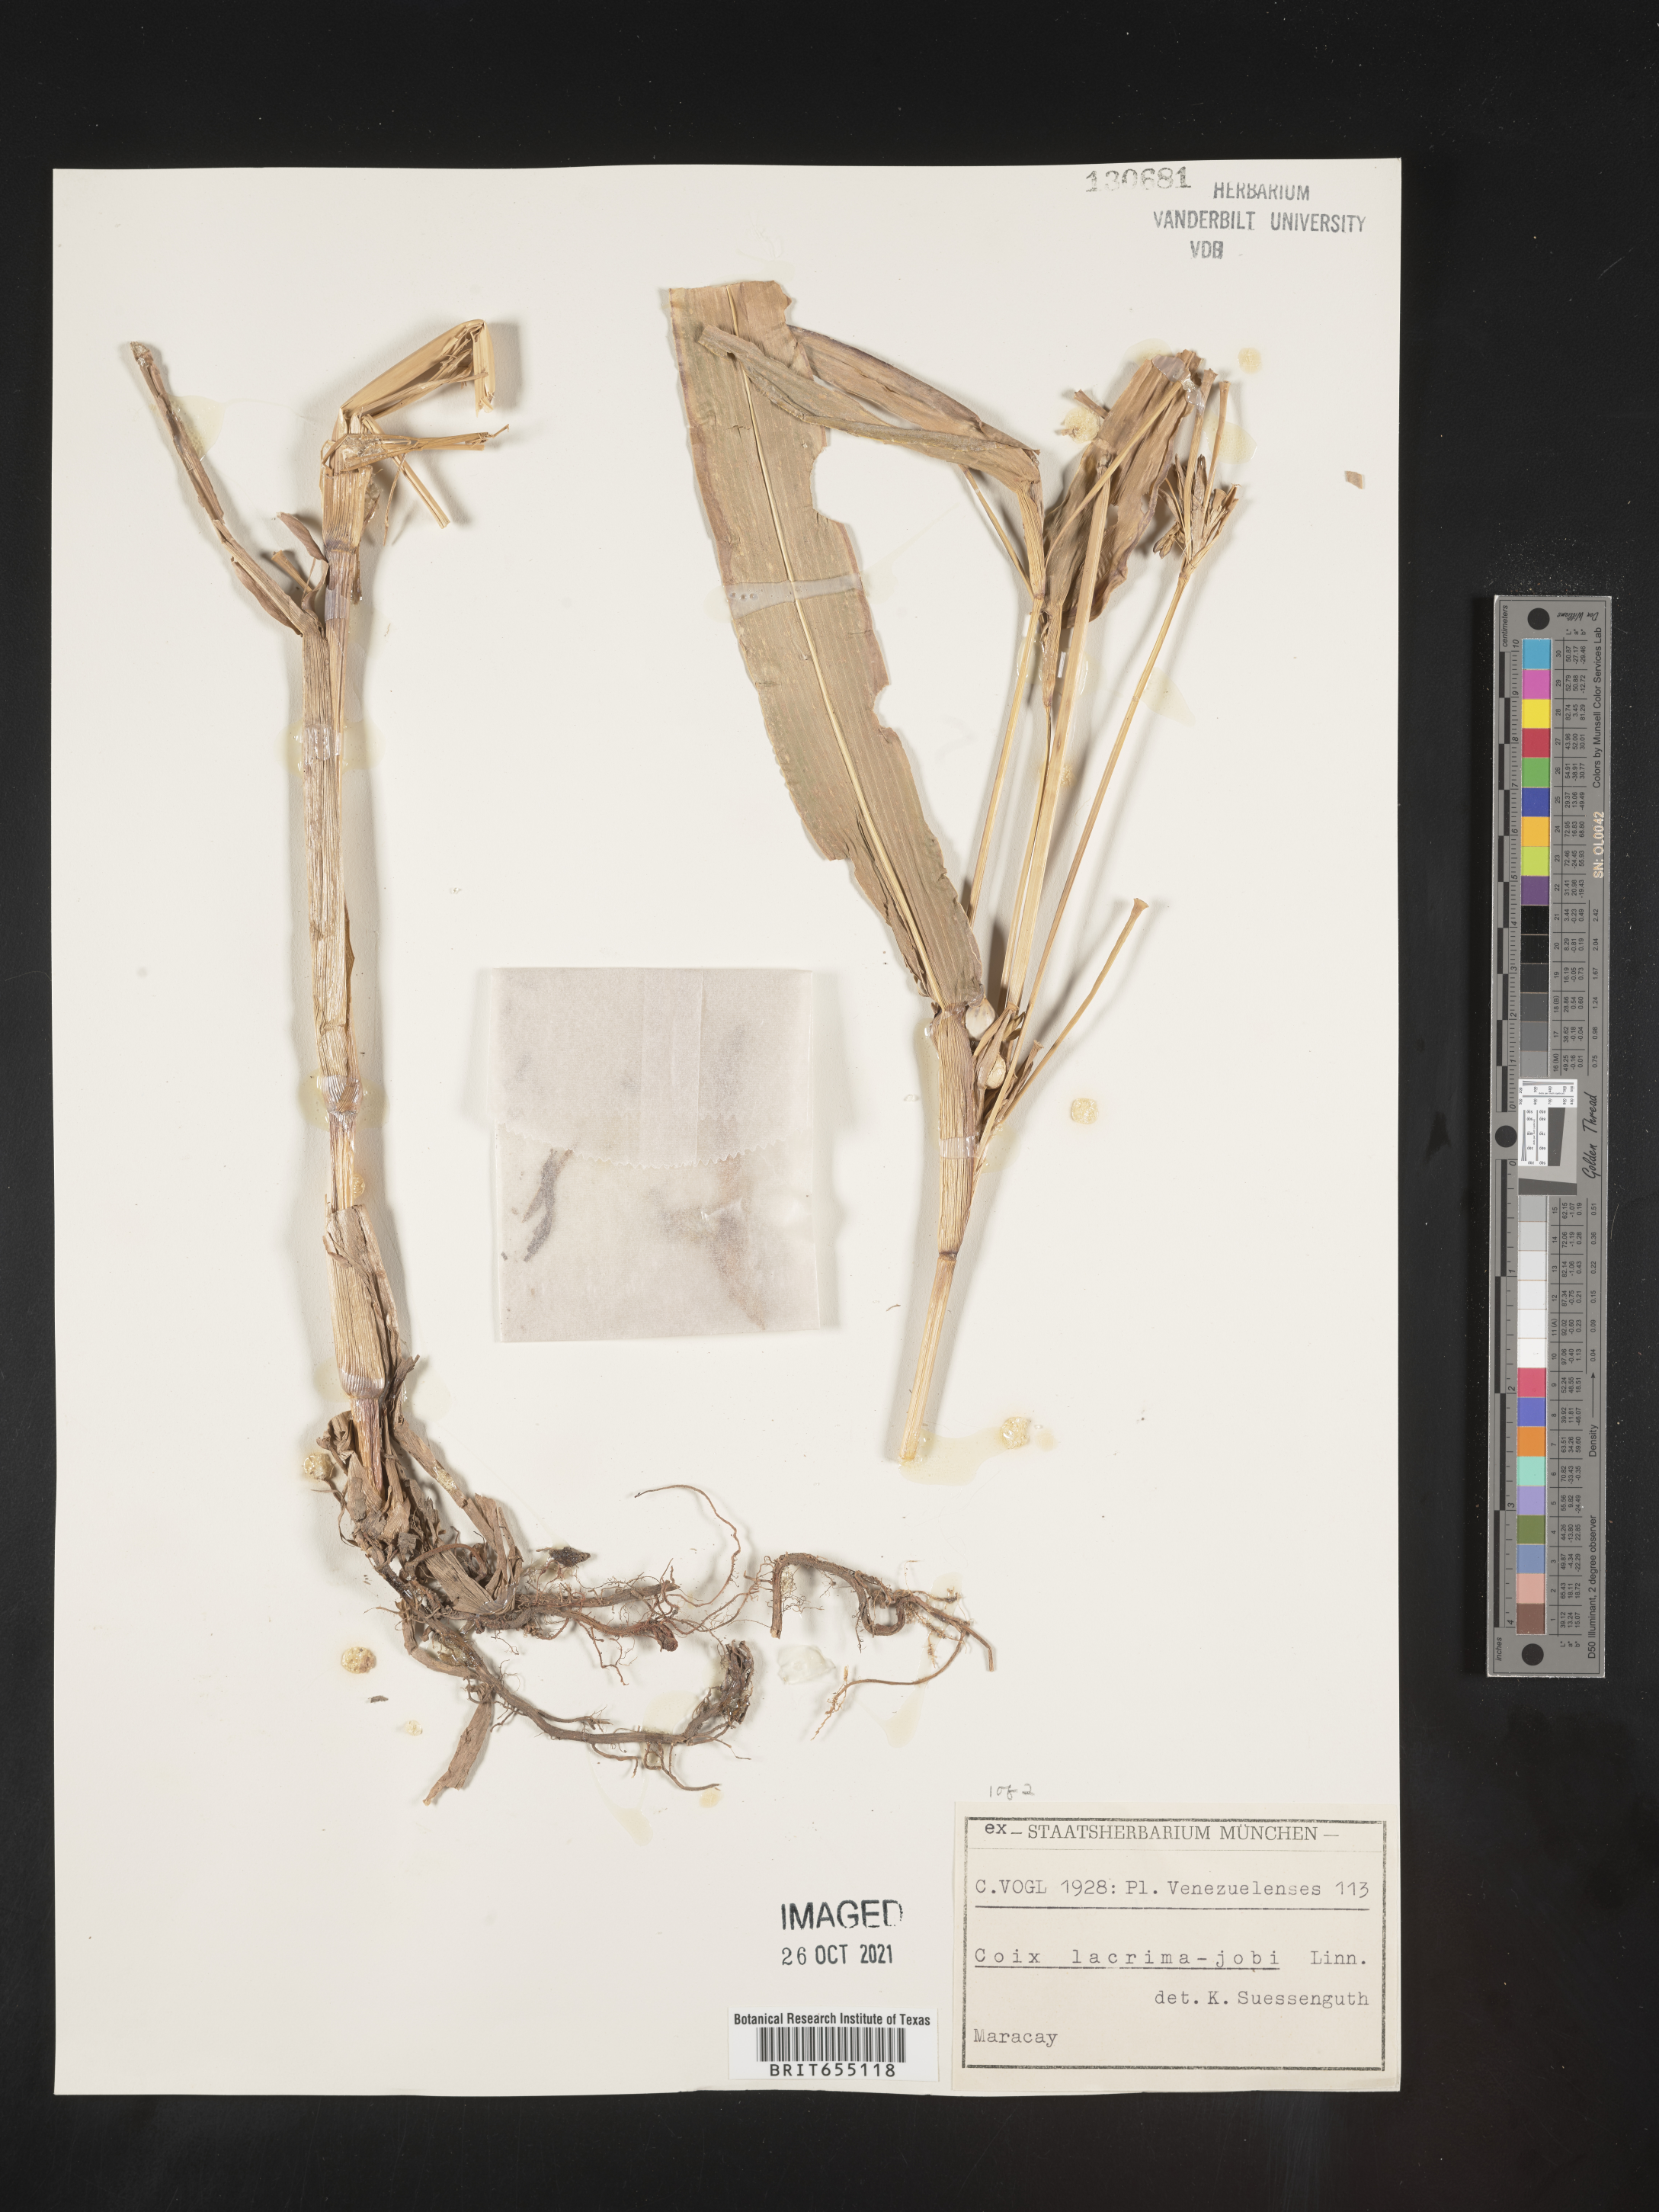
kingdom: Plantae
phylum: Tracheophyta
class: Liliopsida
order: Poales
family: Poaceae
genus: Coix
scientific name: Coix
